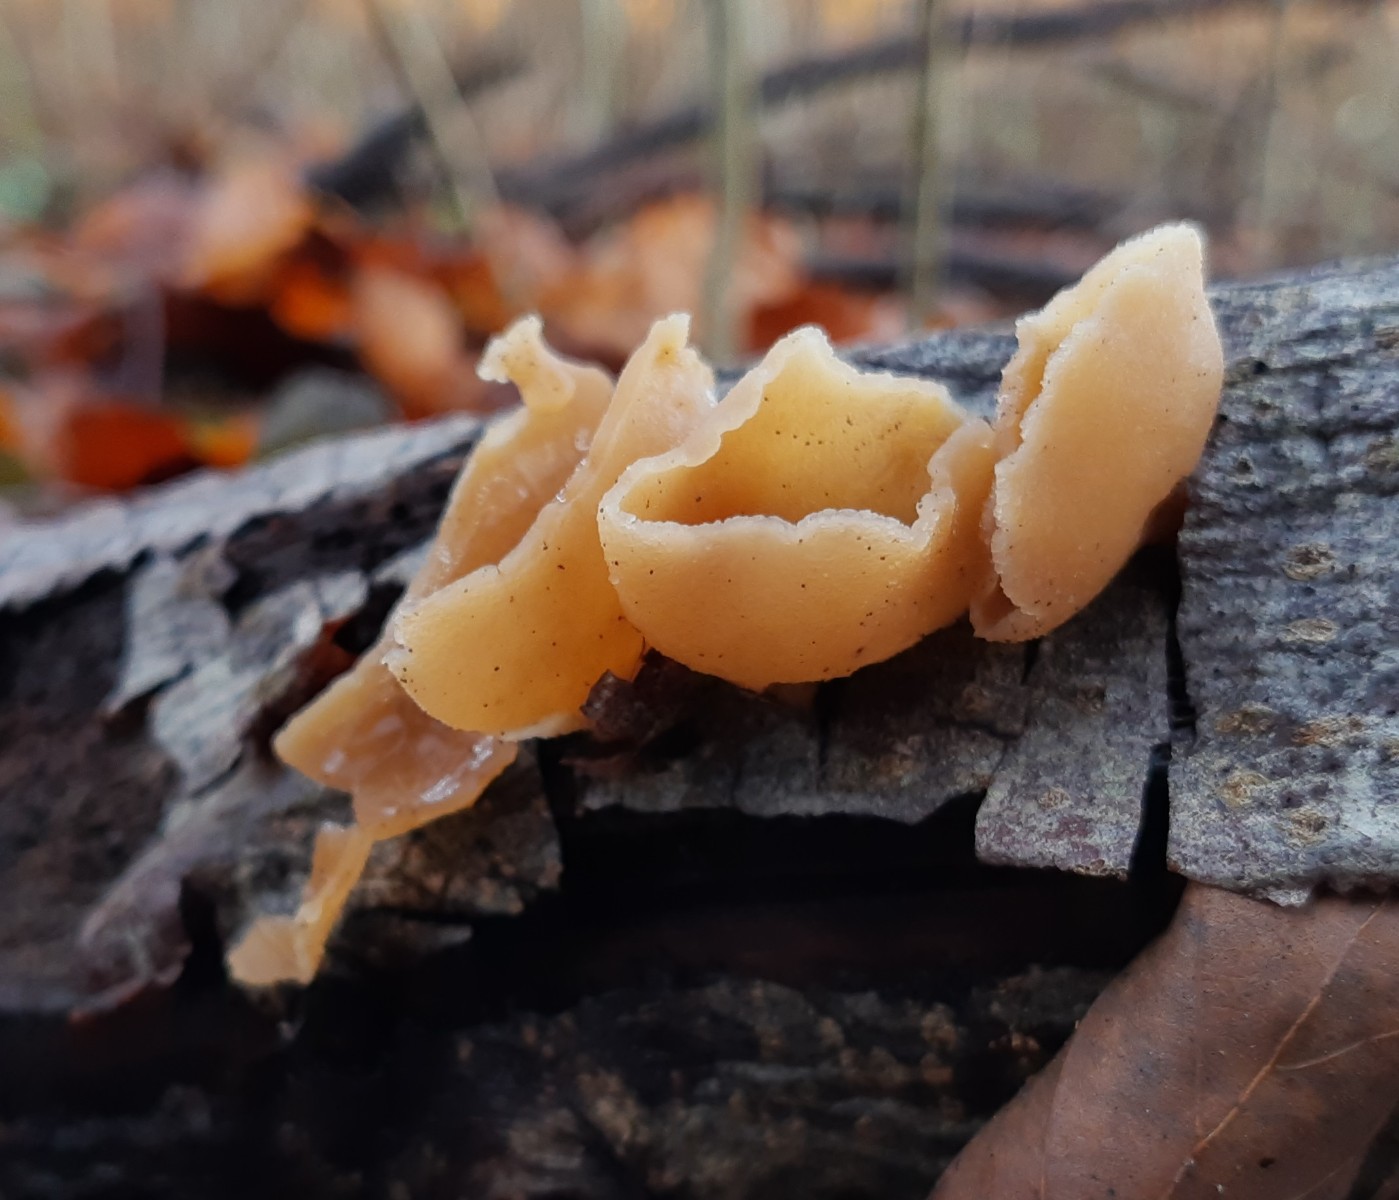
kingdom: Fungi
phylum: Ascomycota
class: Pezizomycetes
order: Pezizales
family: Pezizaceae
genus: Peziza
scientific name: Peziza varia
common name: Ved-bægersvamp
